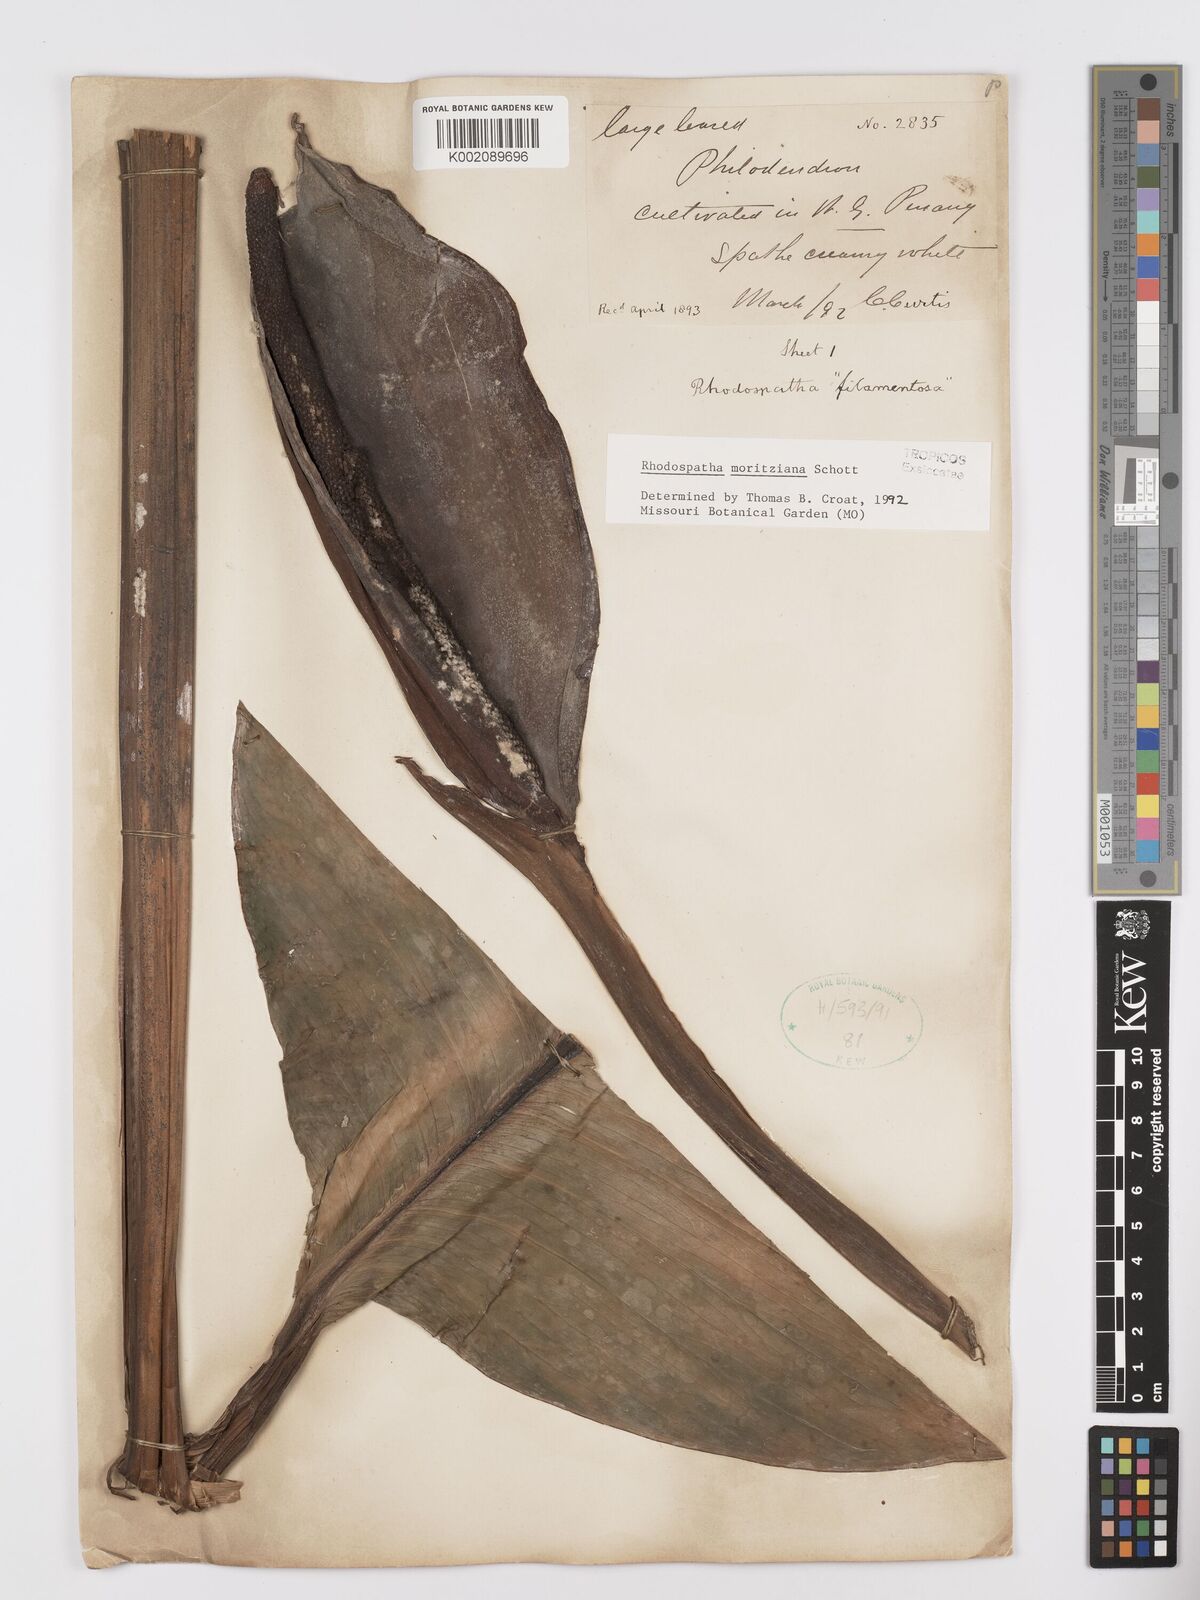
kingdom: Plantae
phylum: Tracheophyta
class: Liliopsida
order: Alismatales
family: Araceae
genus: Rhodospatha
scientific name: Rhodospatha moritziana
